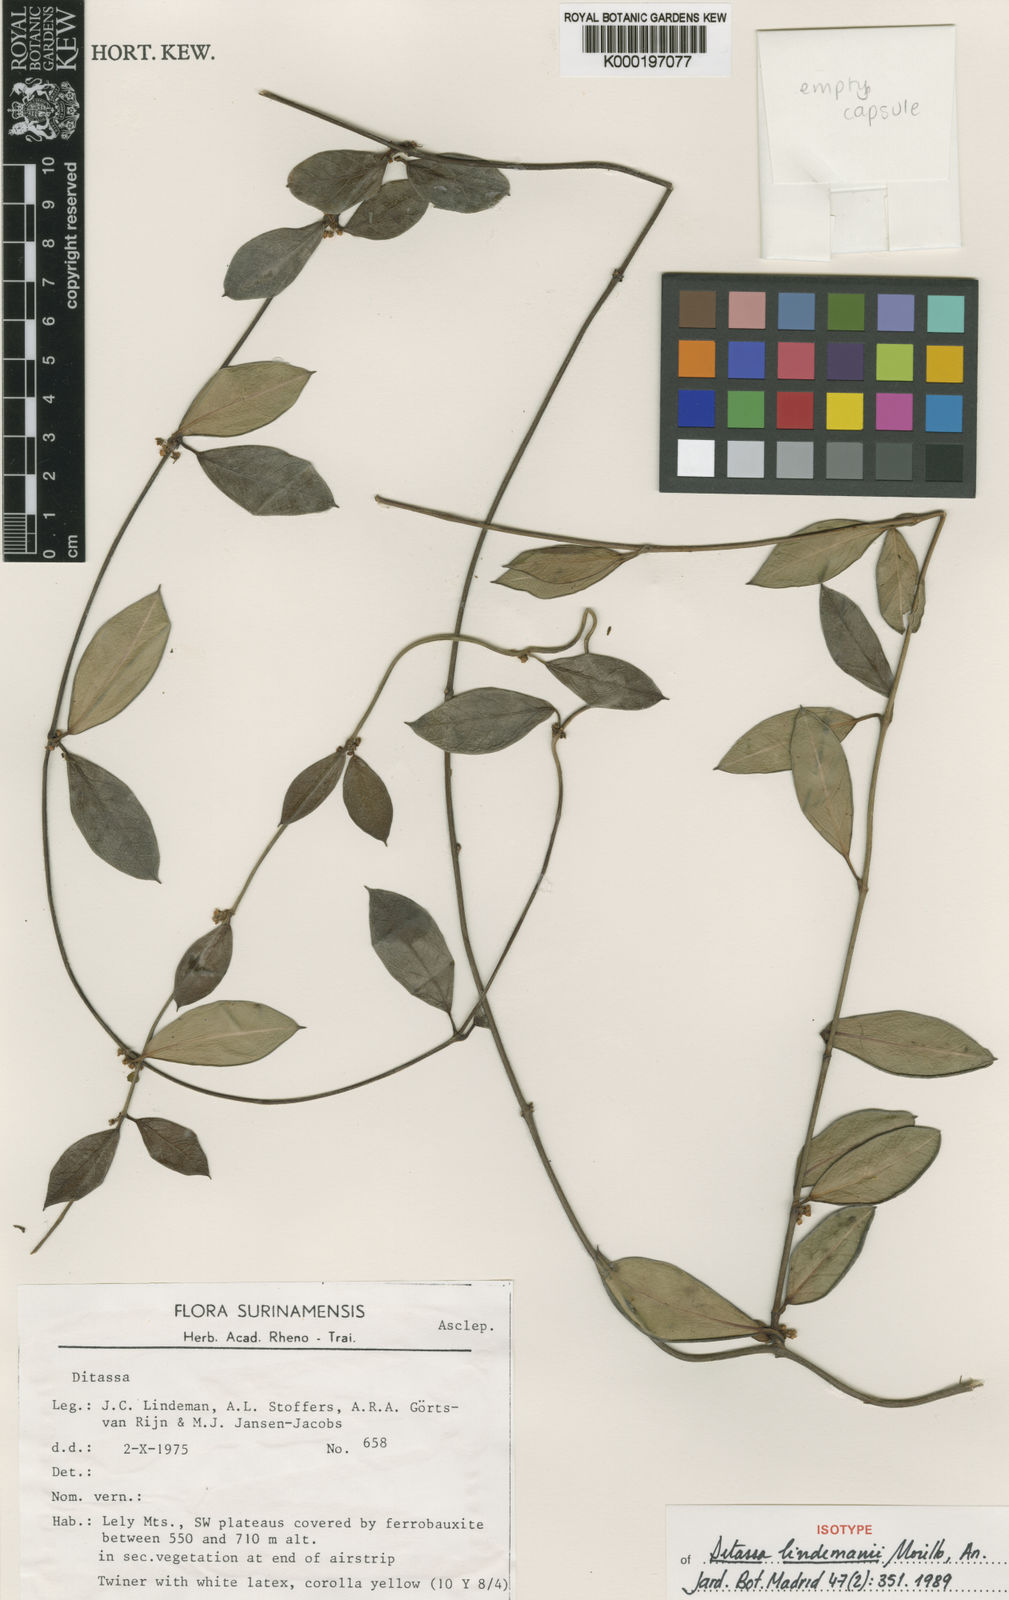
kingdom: Plantae
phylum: Tracheophyta
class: Magnoliopsida
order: Gentianales
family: Apocynaceae
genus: Ditassa
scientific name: Ditassa lindemanii
